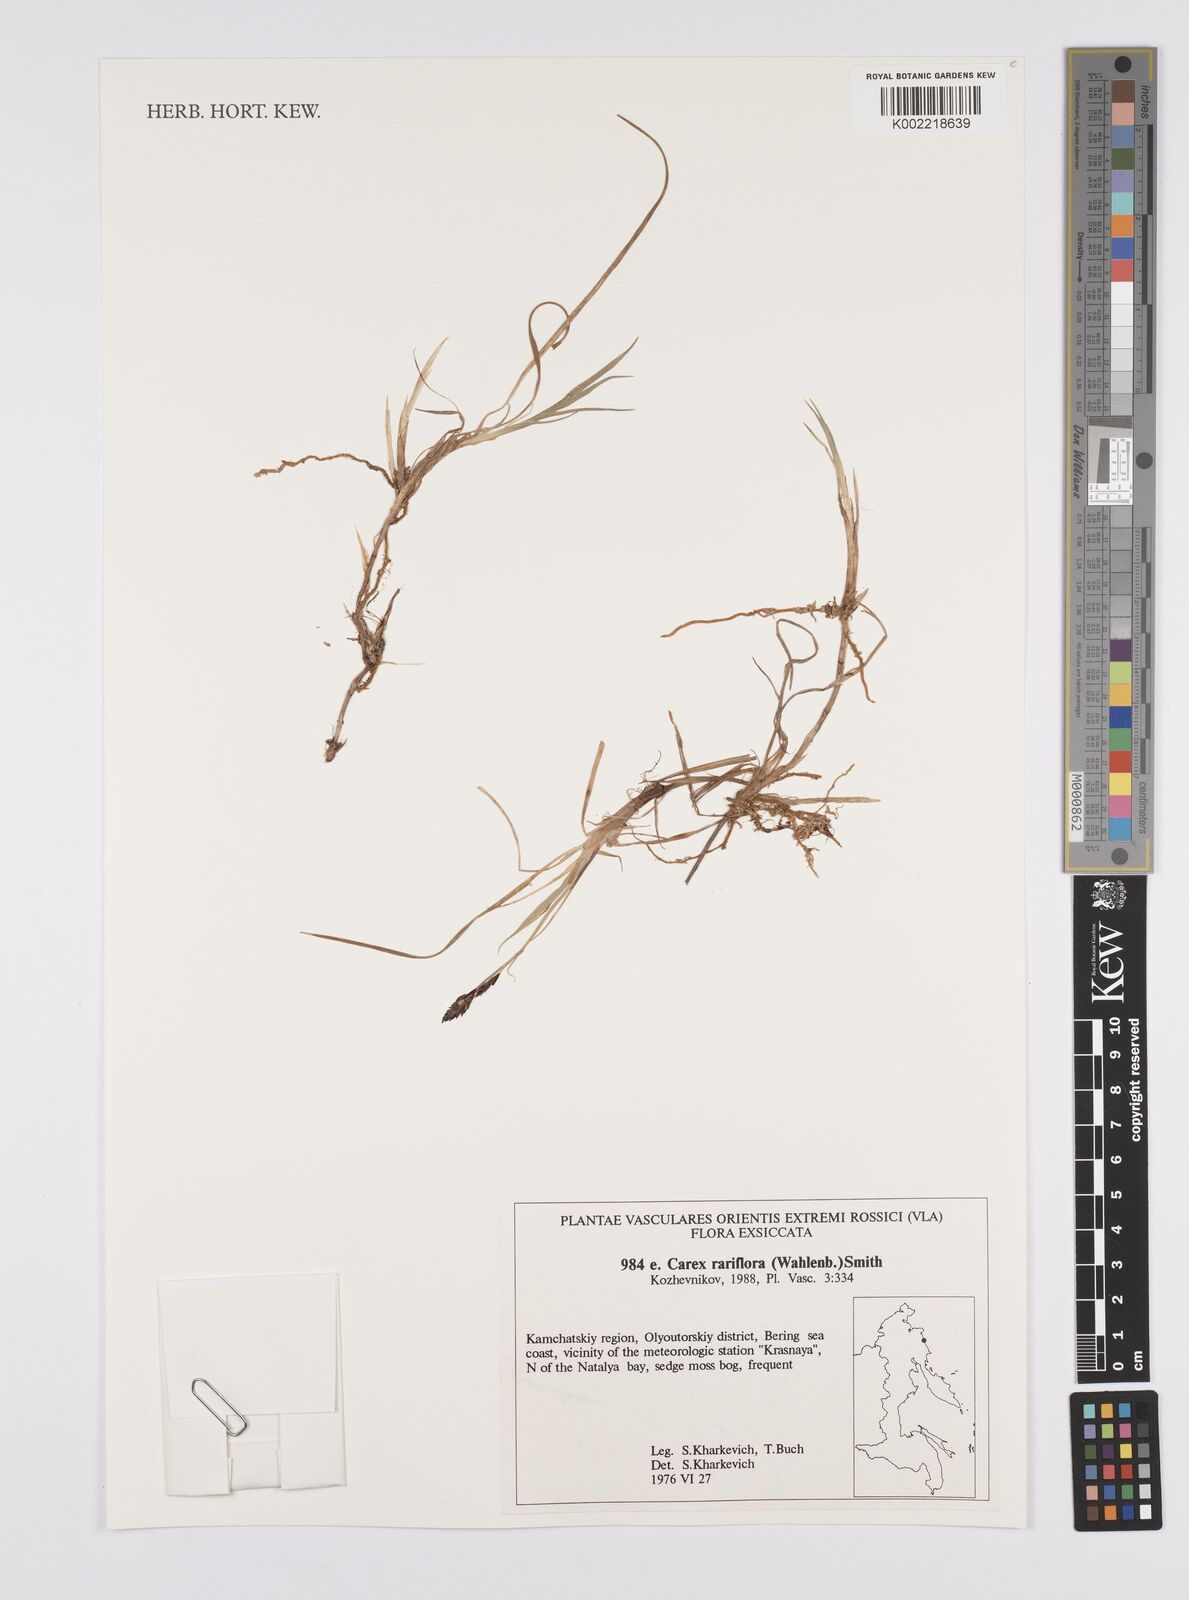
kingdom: Plantae
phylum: Tracheophyta
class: Liliopsida
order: Poales
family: Cyperaceae
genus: Carex
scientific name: Carex rariflora
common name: Loose-flowered alpine sedge
